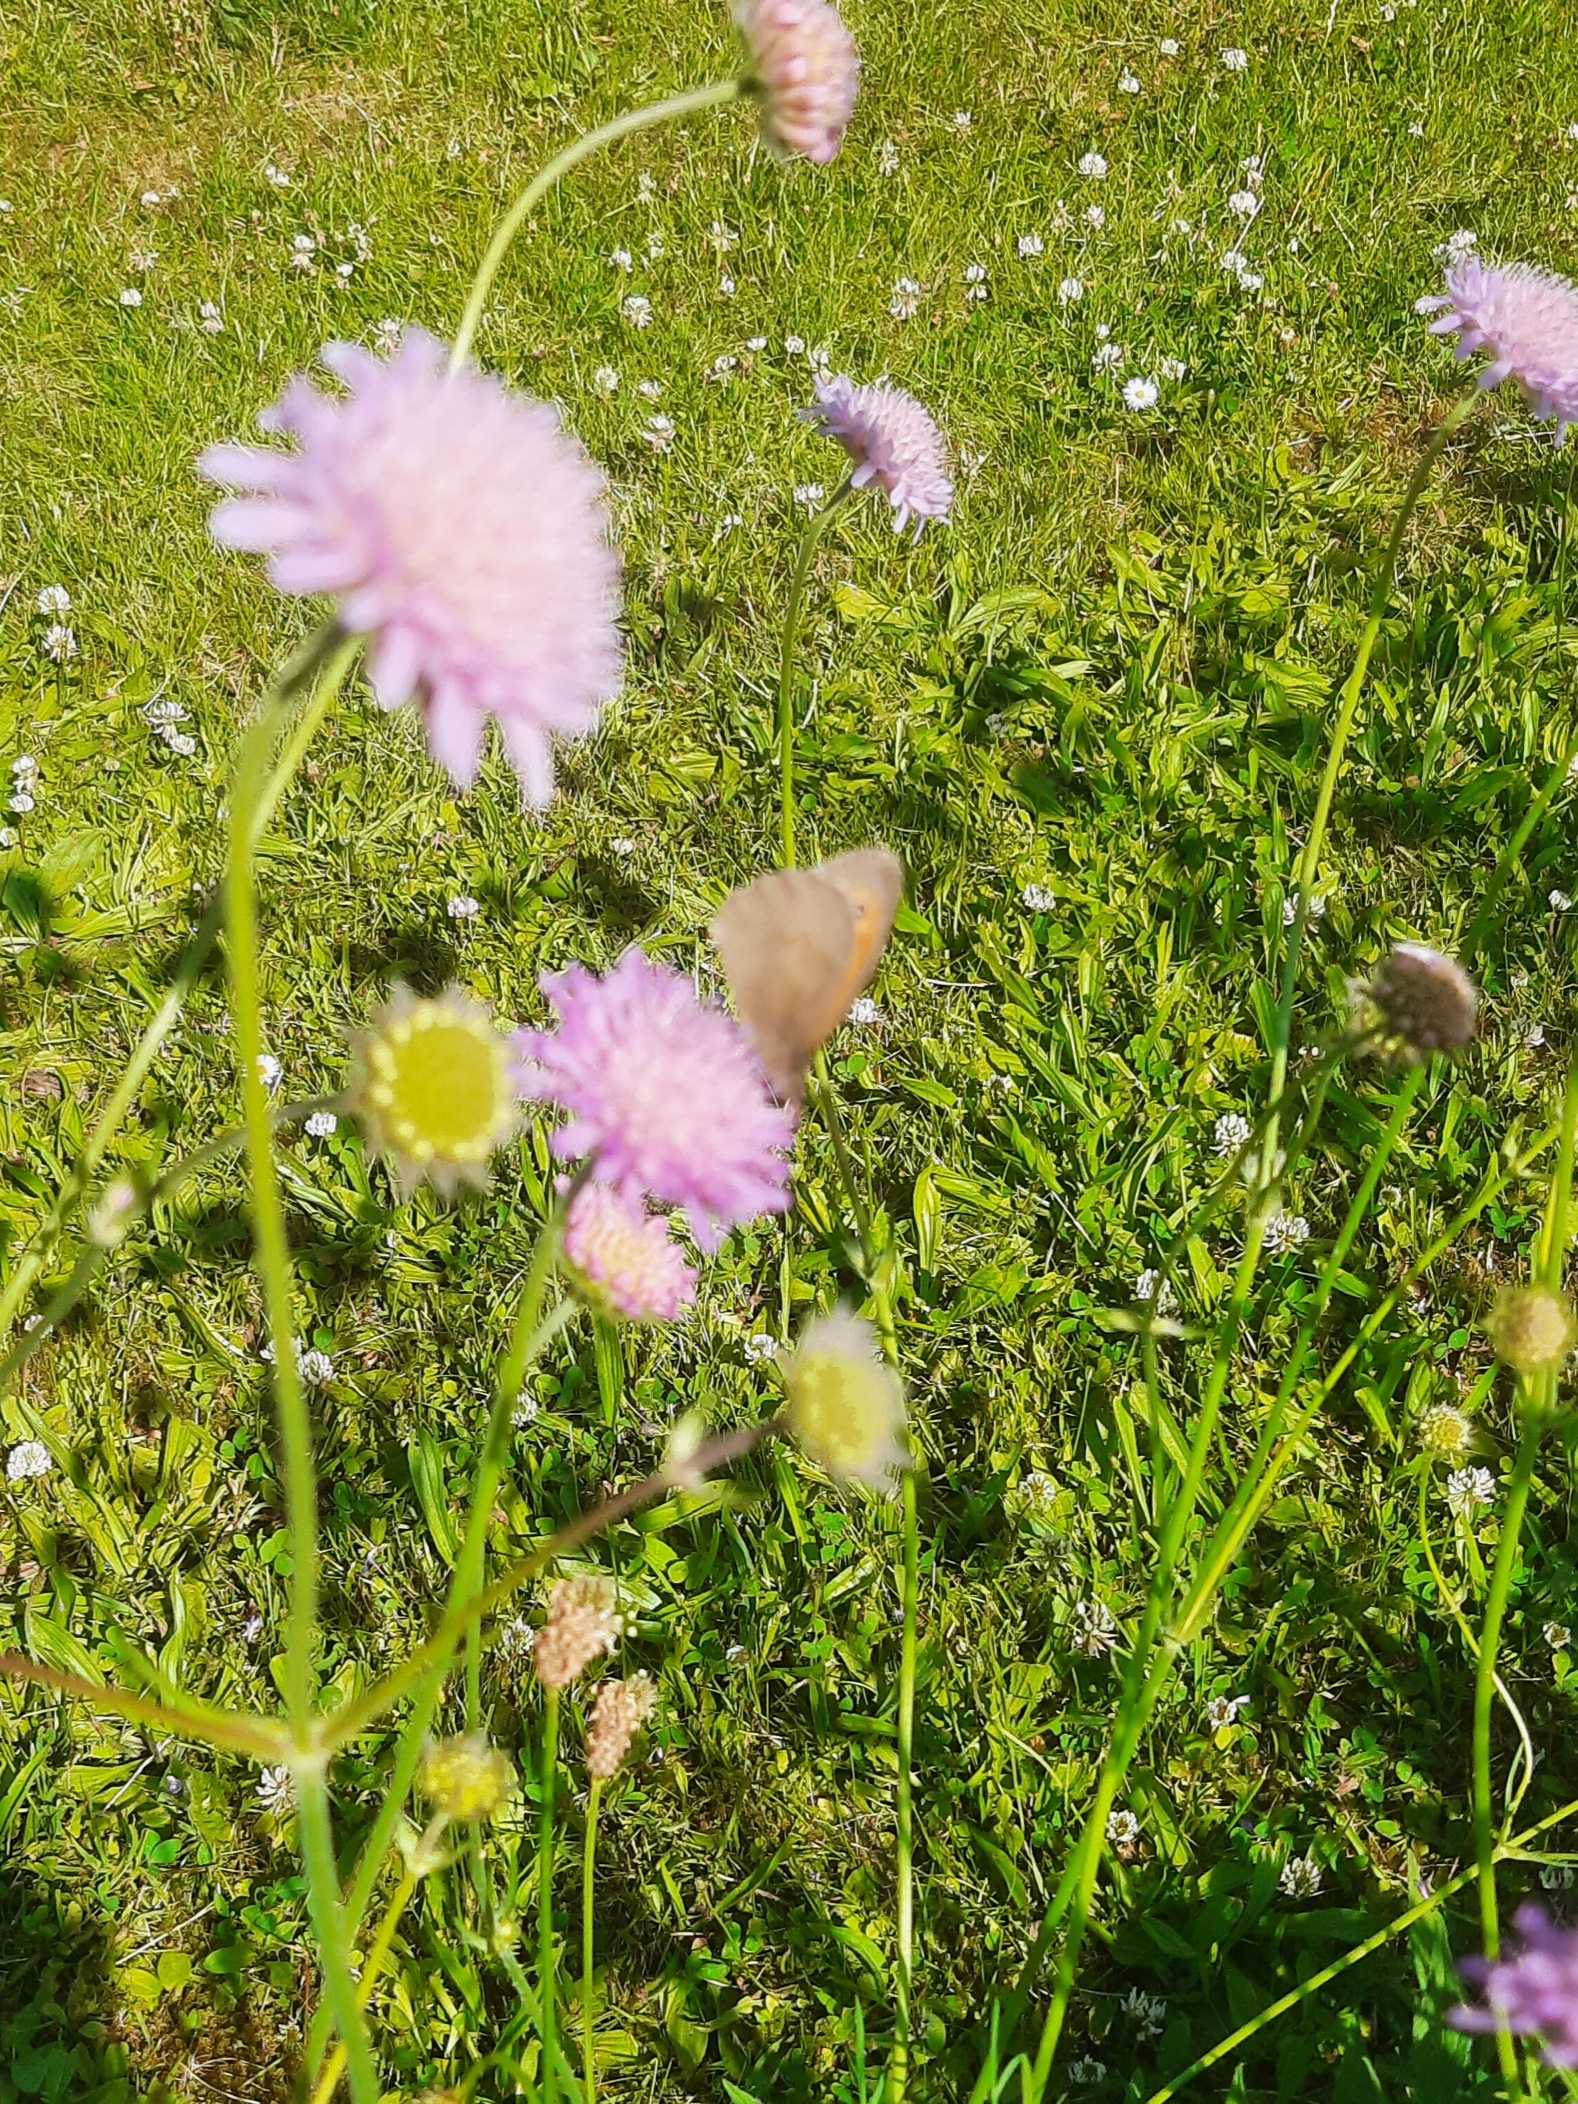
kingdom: Animalia
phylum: Arthropoda
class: Insecta
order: Lepidoptera
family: Nymphalidae
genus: Maniola
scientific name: Maniola jurtina
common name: Græsrandøje
